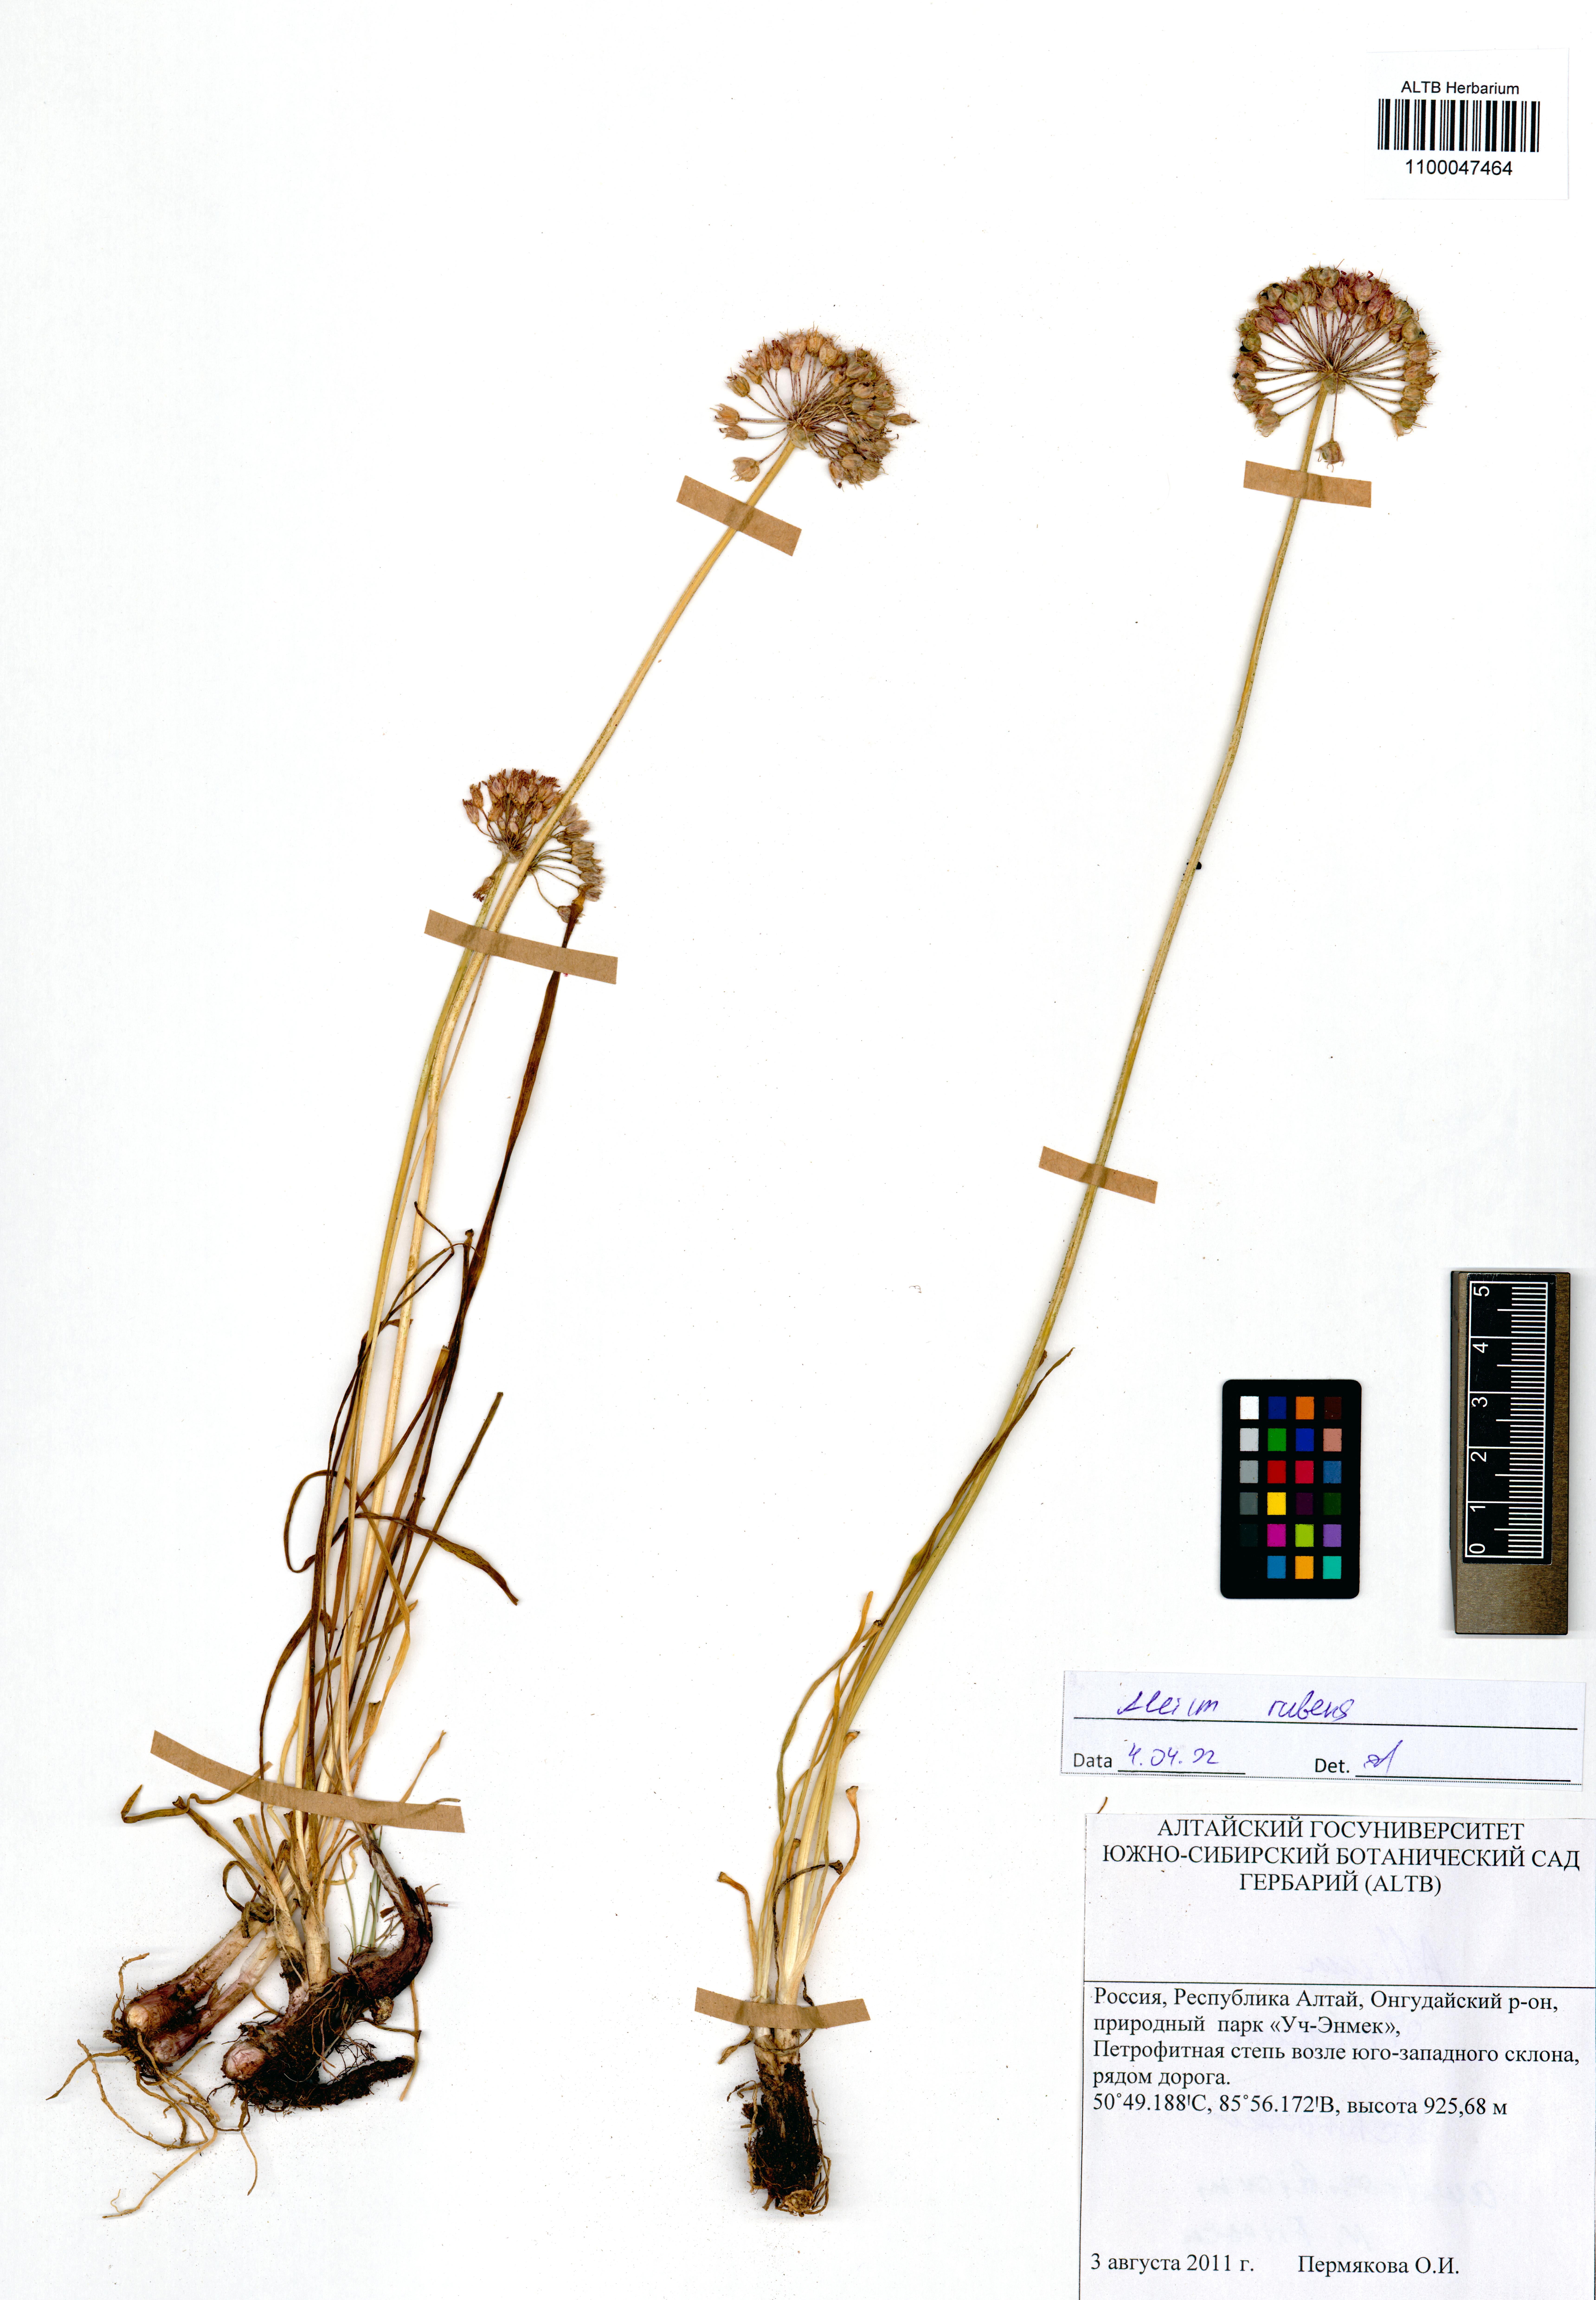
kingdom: Plantae
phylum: Tracheophyta
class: Liliopsida
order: Asparagales
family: Amaryllidaceae
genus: Allium
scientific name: Allium rubens
